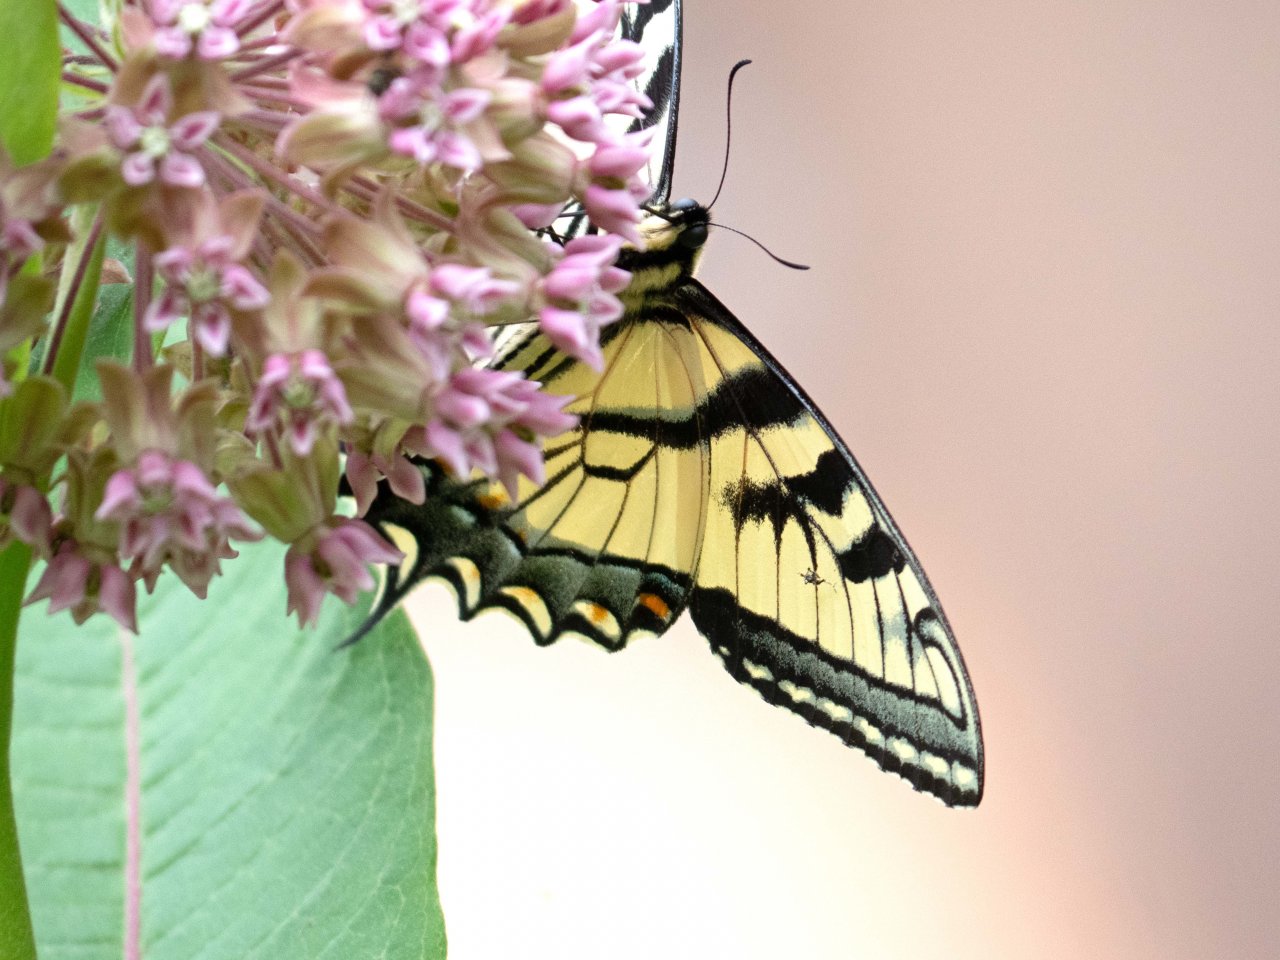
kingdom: Animalia
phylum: Arthropoda
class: Insecta
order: Lepidoptera
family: Papilionidae
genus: Pterourus
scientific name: Pterourus
